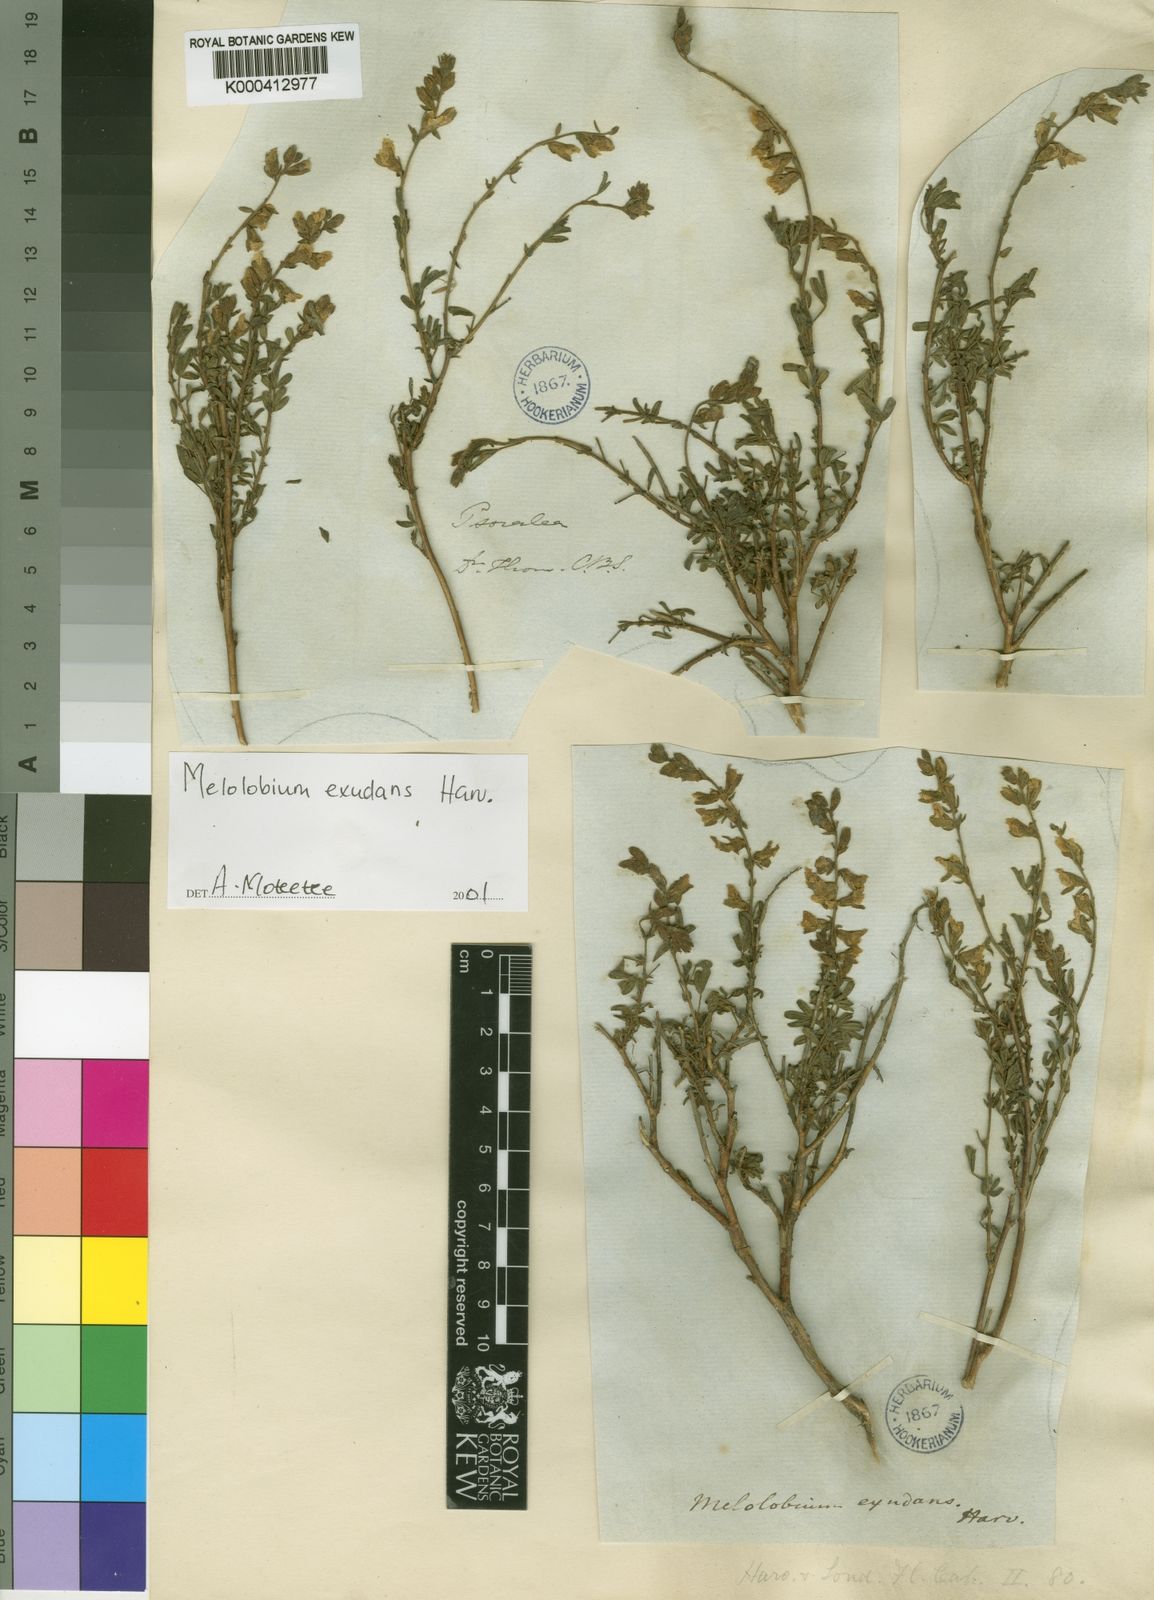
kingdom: Plantae
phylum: Tracheophyta
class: Magnoliopsida
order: Fabales
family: Fabaceae
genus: Melolobium
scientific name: Melolobium exudans
